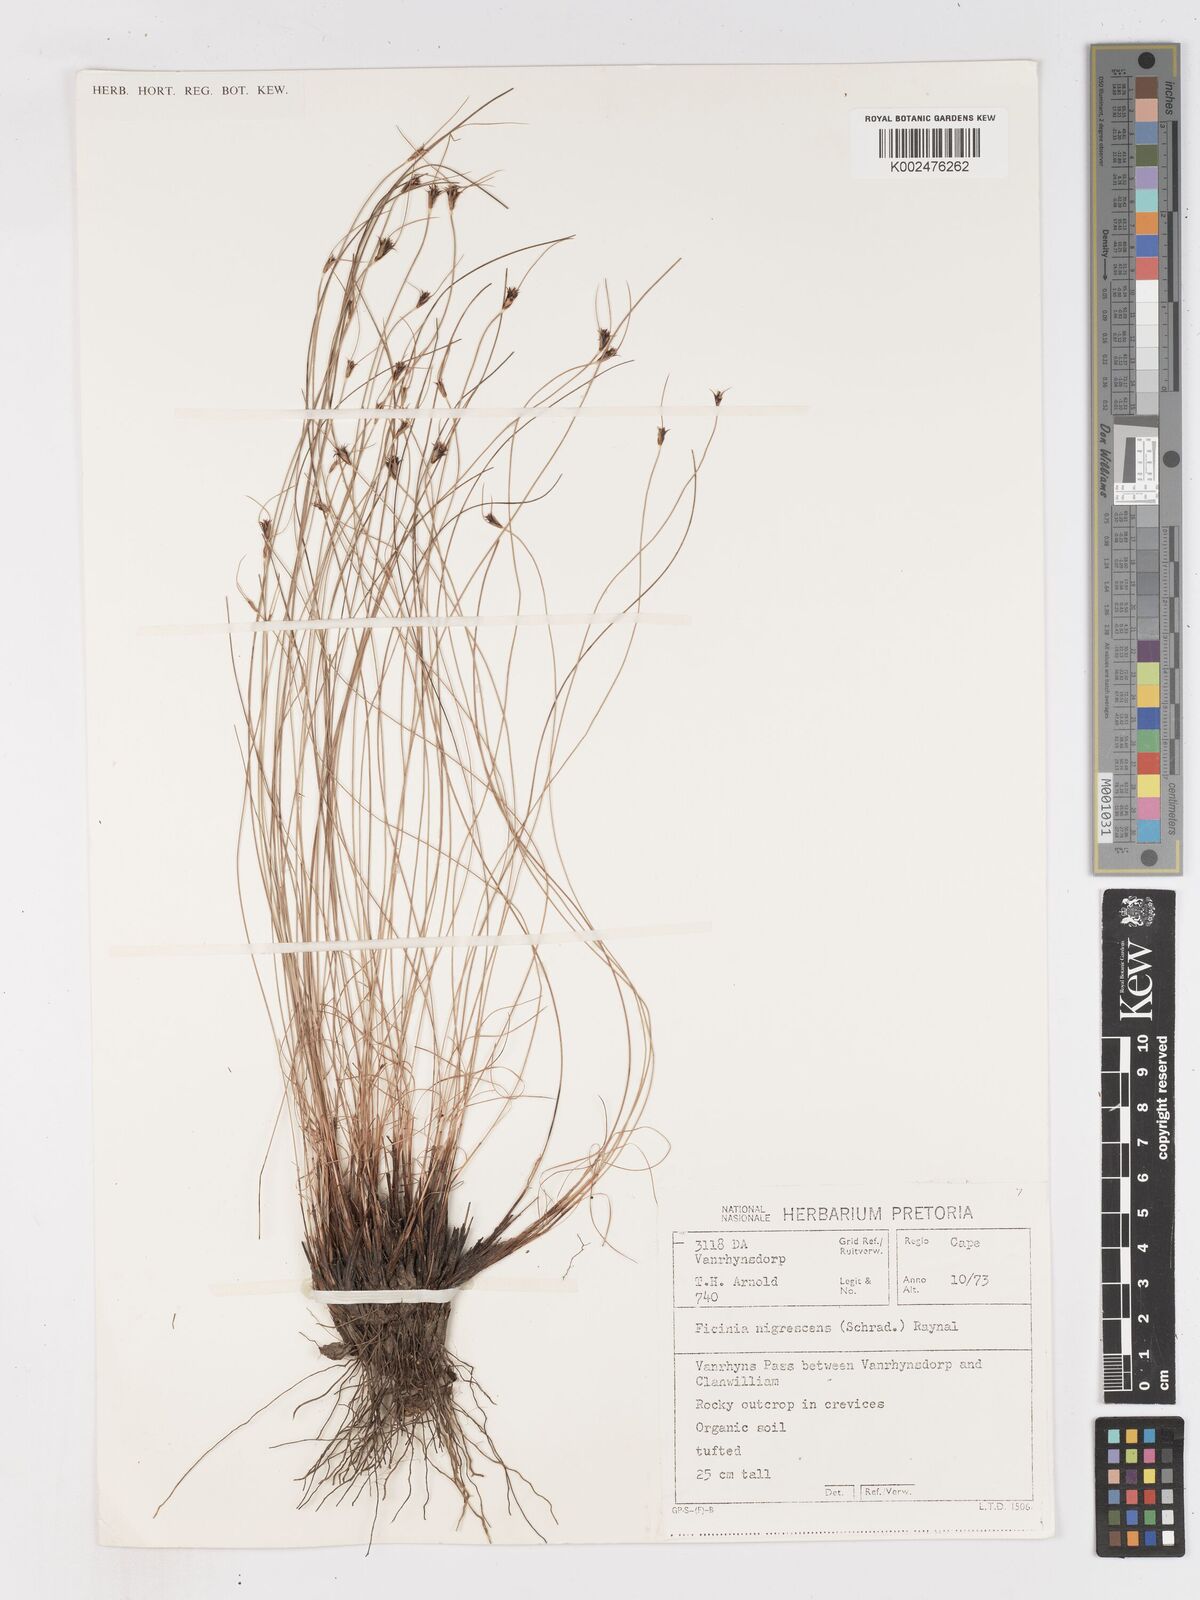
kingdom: Plantae
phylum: Tracheophyta
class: Liliopsida
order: Poales
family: Cyperaceae
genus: Ficinia
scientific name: Ficinia nigrescens
